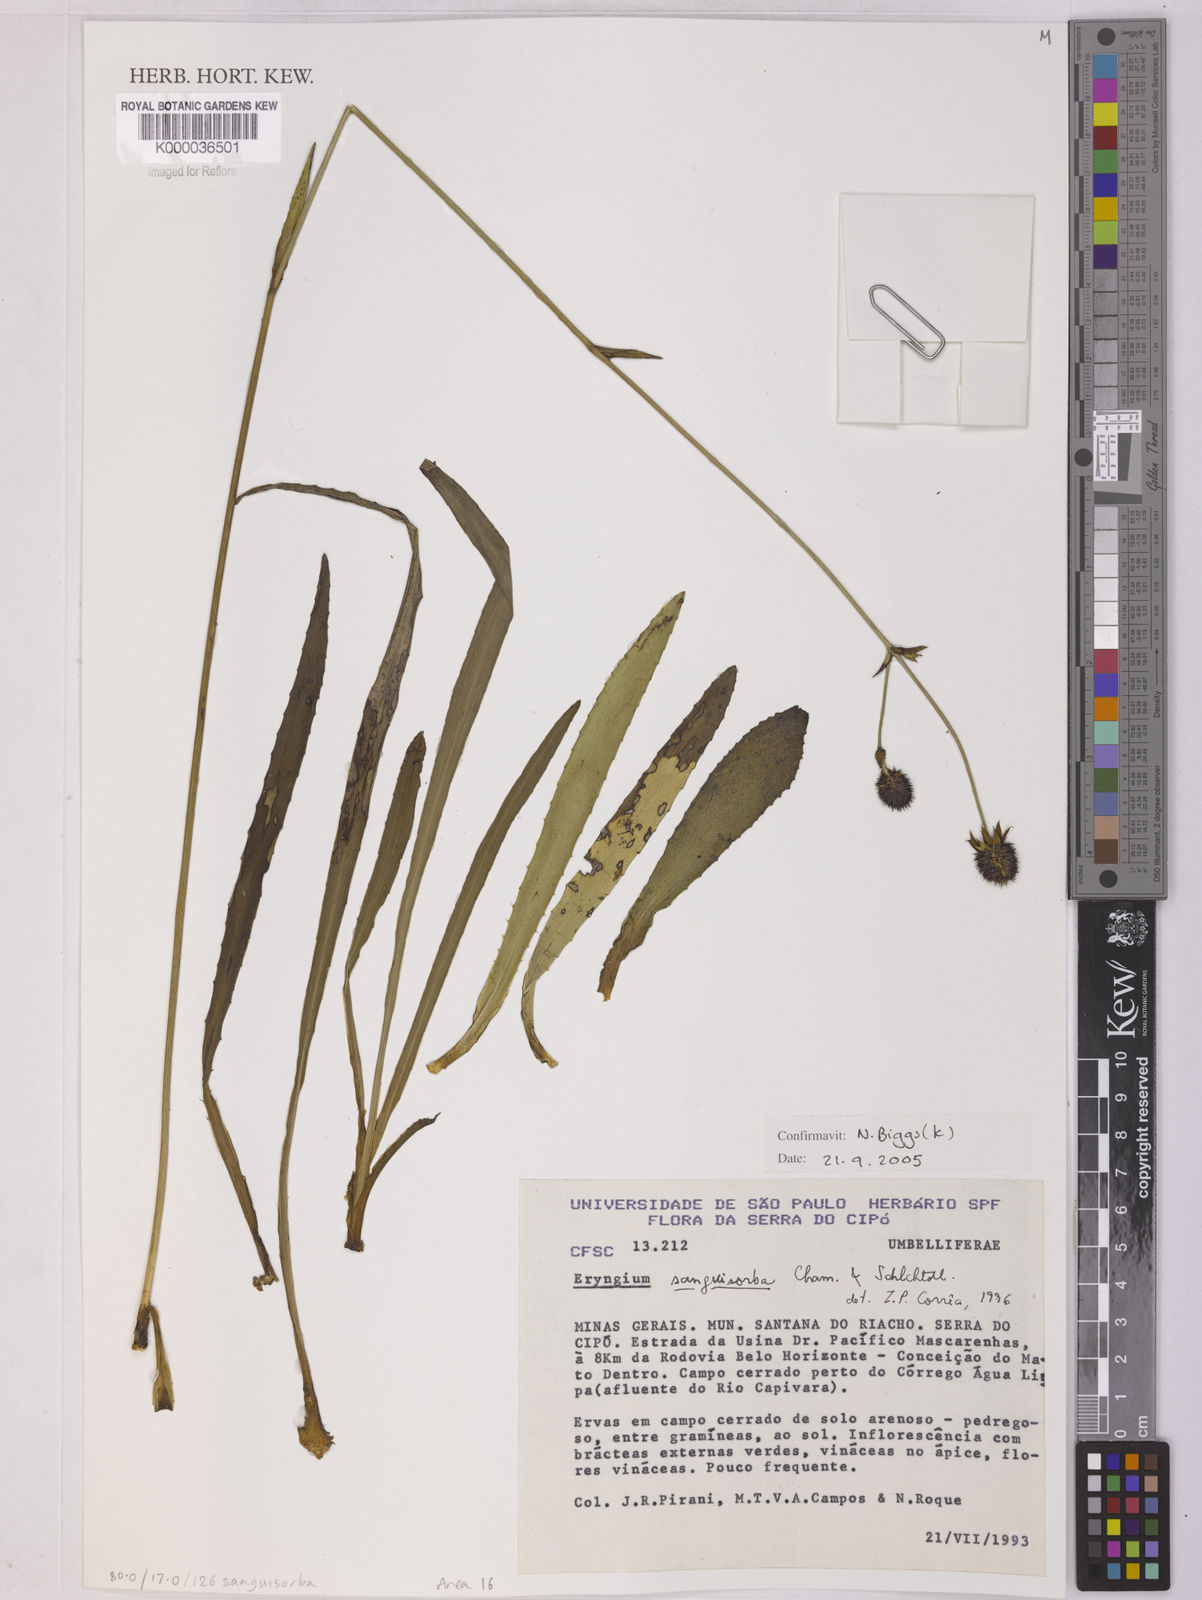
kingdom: Plantae
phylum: Tracheophyta
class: Magnoliopsida
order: Apiales
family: Apiaceae
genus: Eryngium
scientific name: Eryngium sanguisorba
